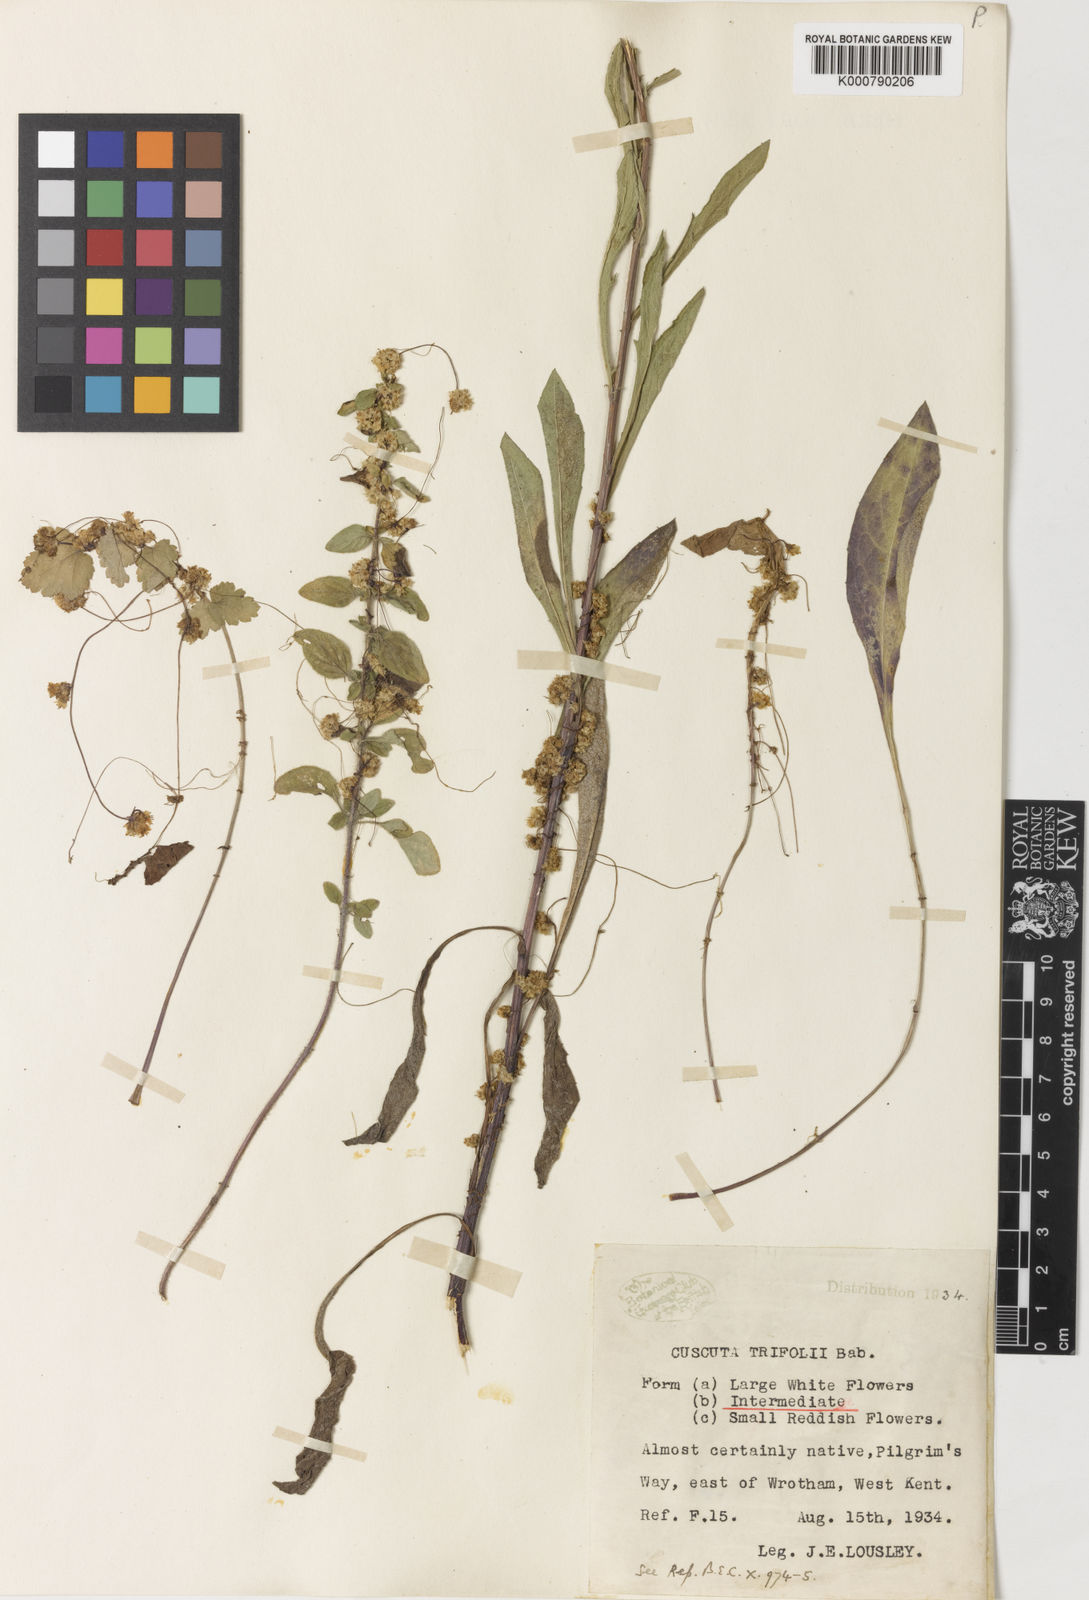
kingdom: Plantae
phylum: Tracheophyta
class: Magnoliopsida
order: Solanales
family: Convolvulaceae
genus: Cuscuta
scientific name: Cuscuta epithymum
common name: Clover dodder
